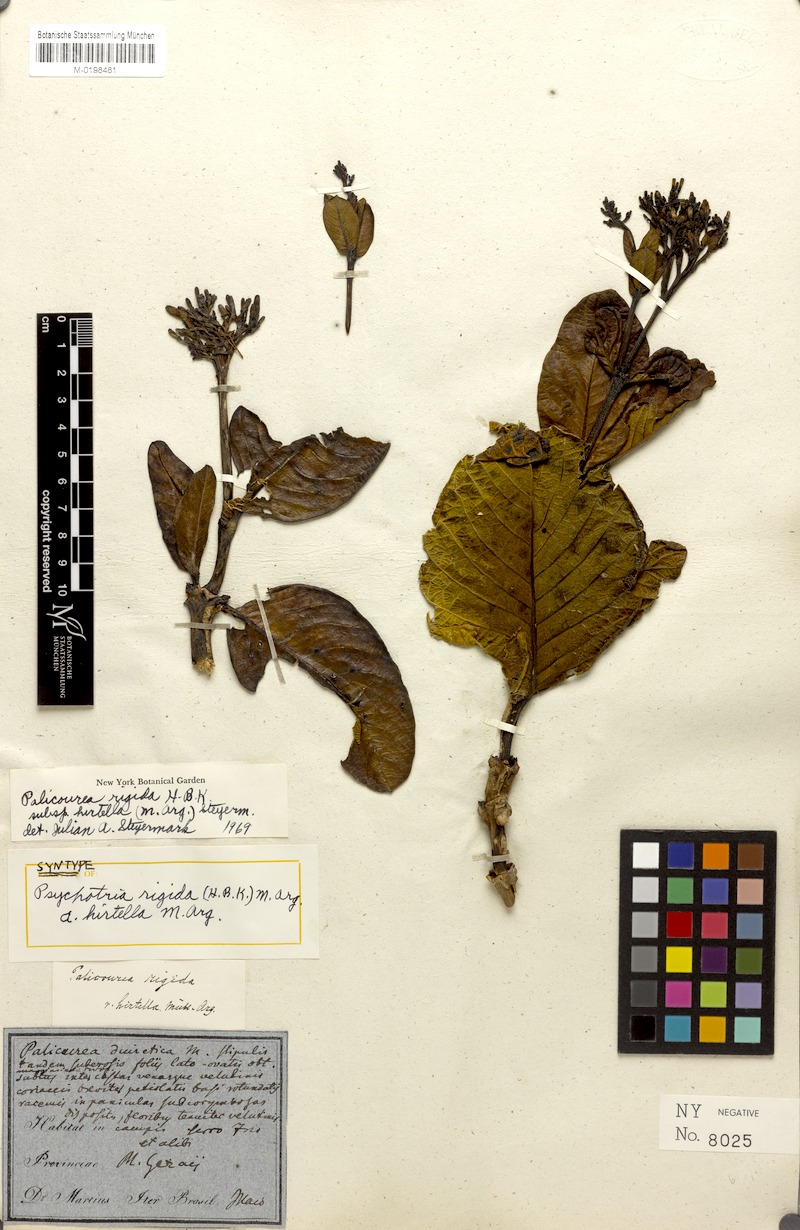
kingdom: Plantae
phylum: Tracheophyta
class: Magnoliopsida
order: Gentianales
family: Rubiaceae
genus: Palicourea
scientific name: Palicourea rigida
